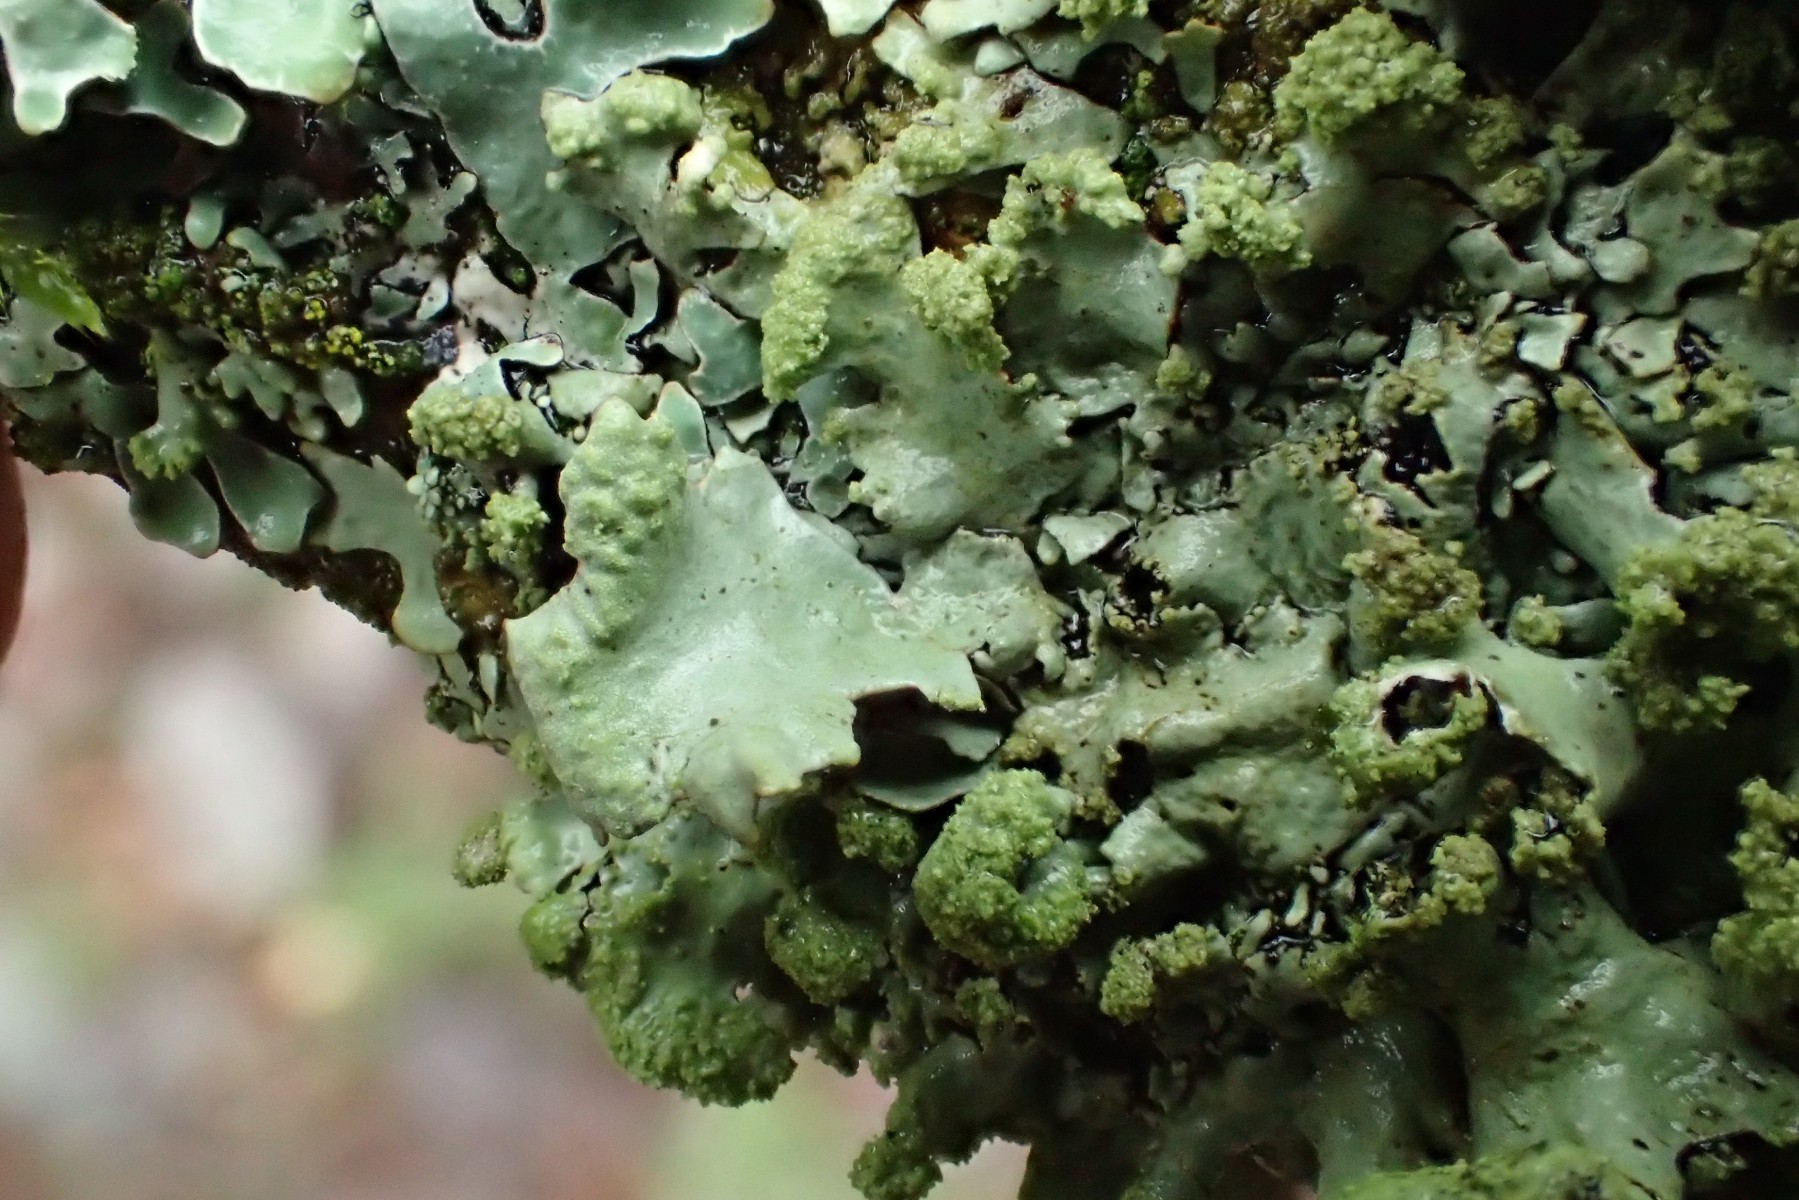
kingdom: Fungi
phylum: Ascomycota
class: Lecanoromycetes
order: Lecanorales
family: Parmeliaceae
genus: Hypotrachyna
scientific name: Hypotrachyna revoluta
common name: bleggrå skållav
